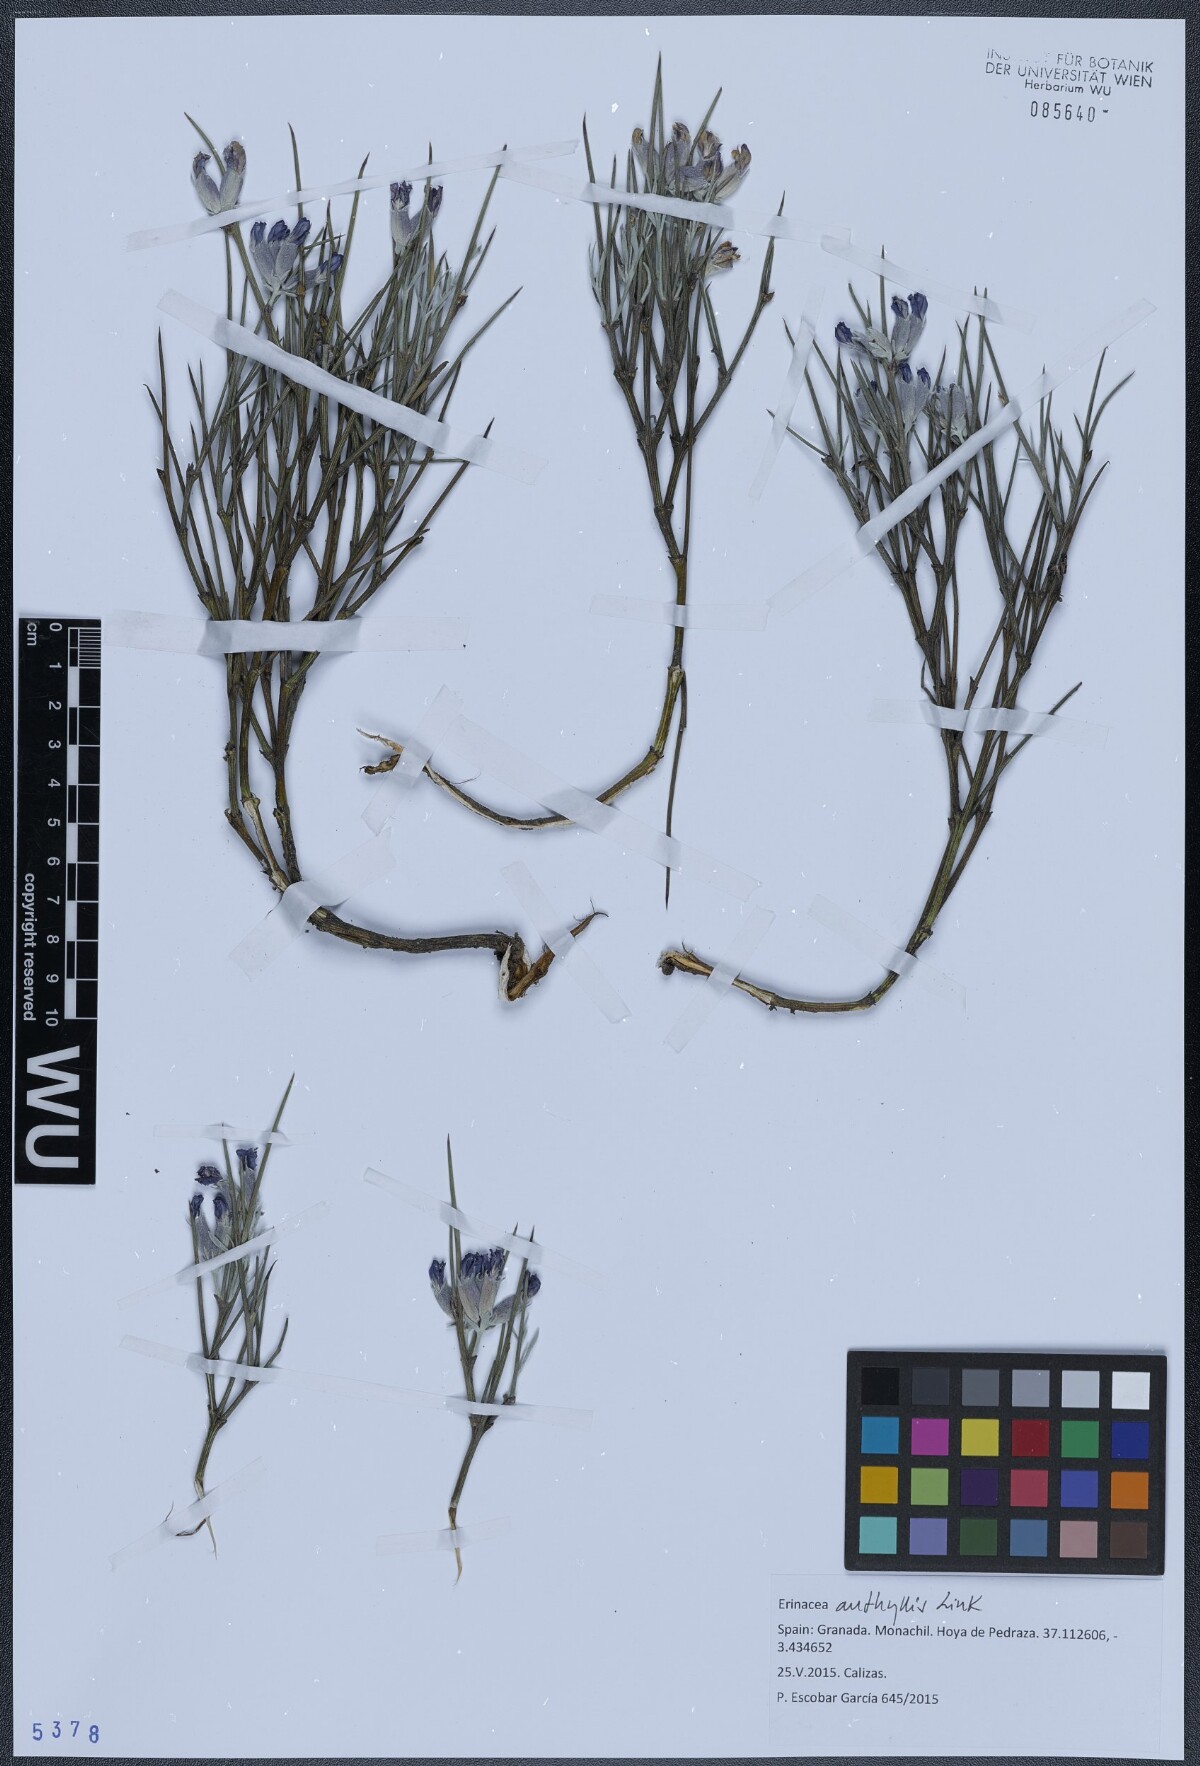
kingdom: Plantae
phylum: Tracheophyta
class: Magnoliopsida
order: Fabales
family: Fabaceae
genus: Erinacea
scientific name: Erinacea anthyllis
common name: Hedgehog-broom
